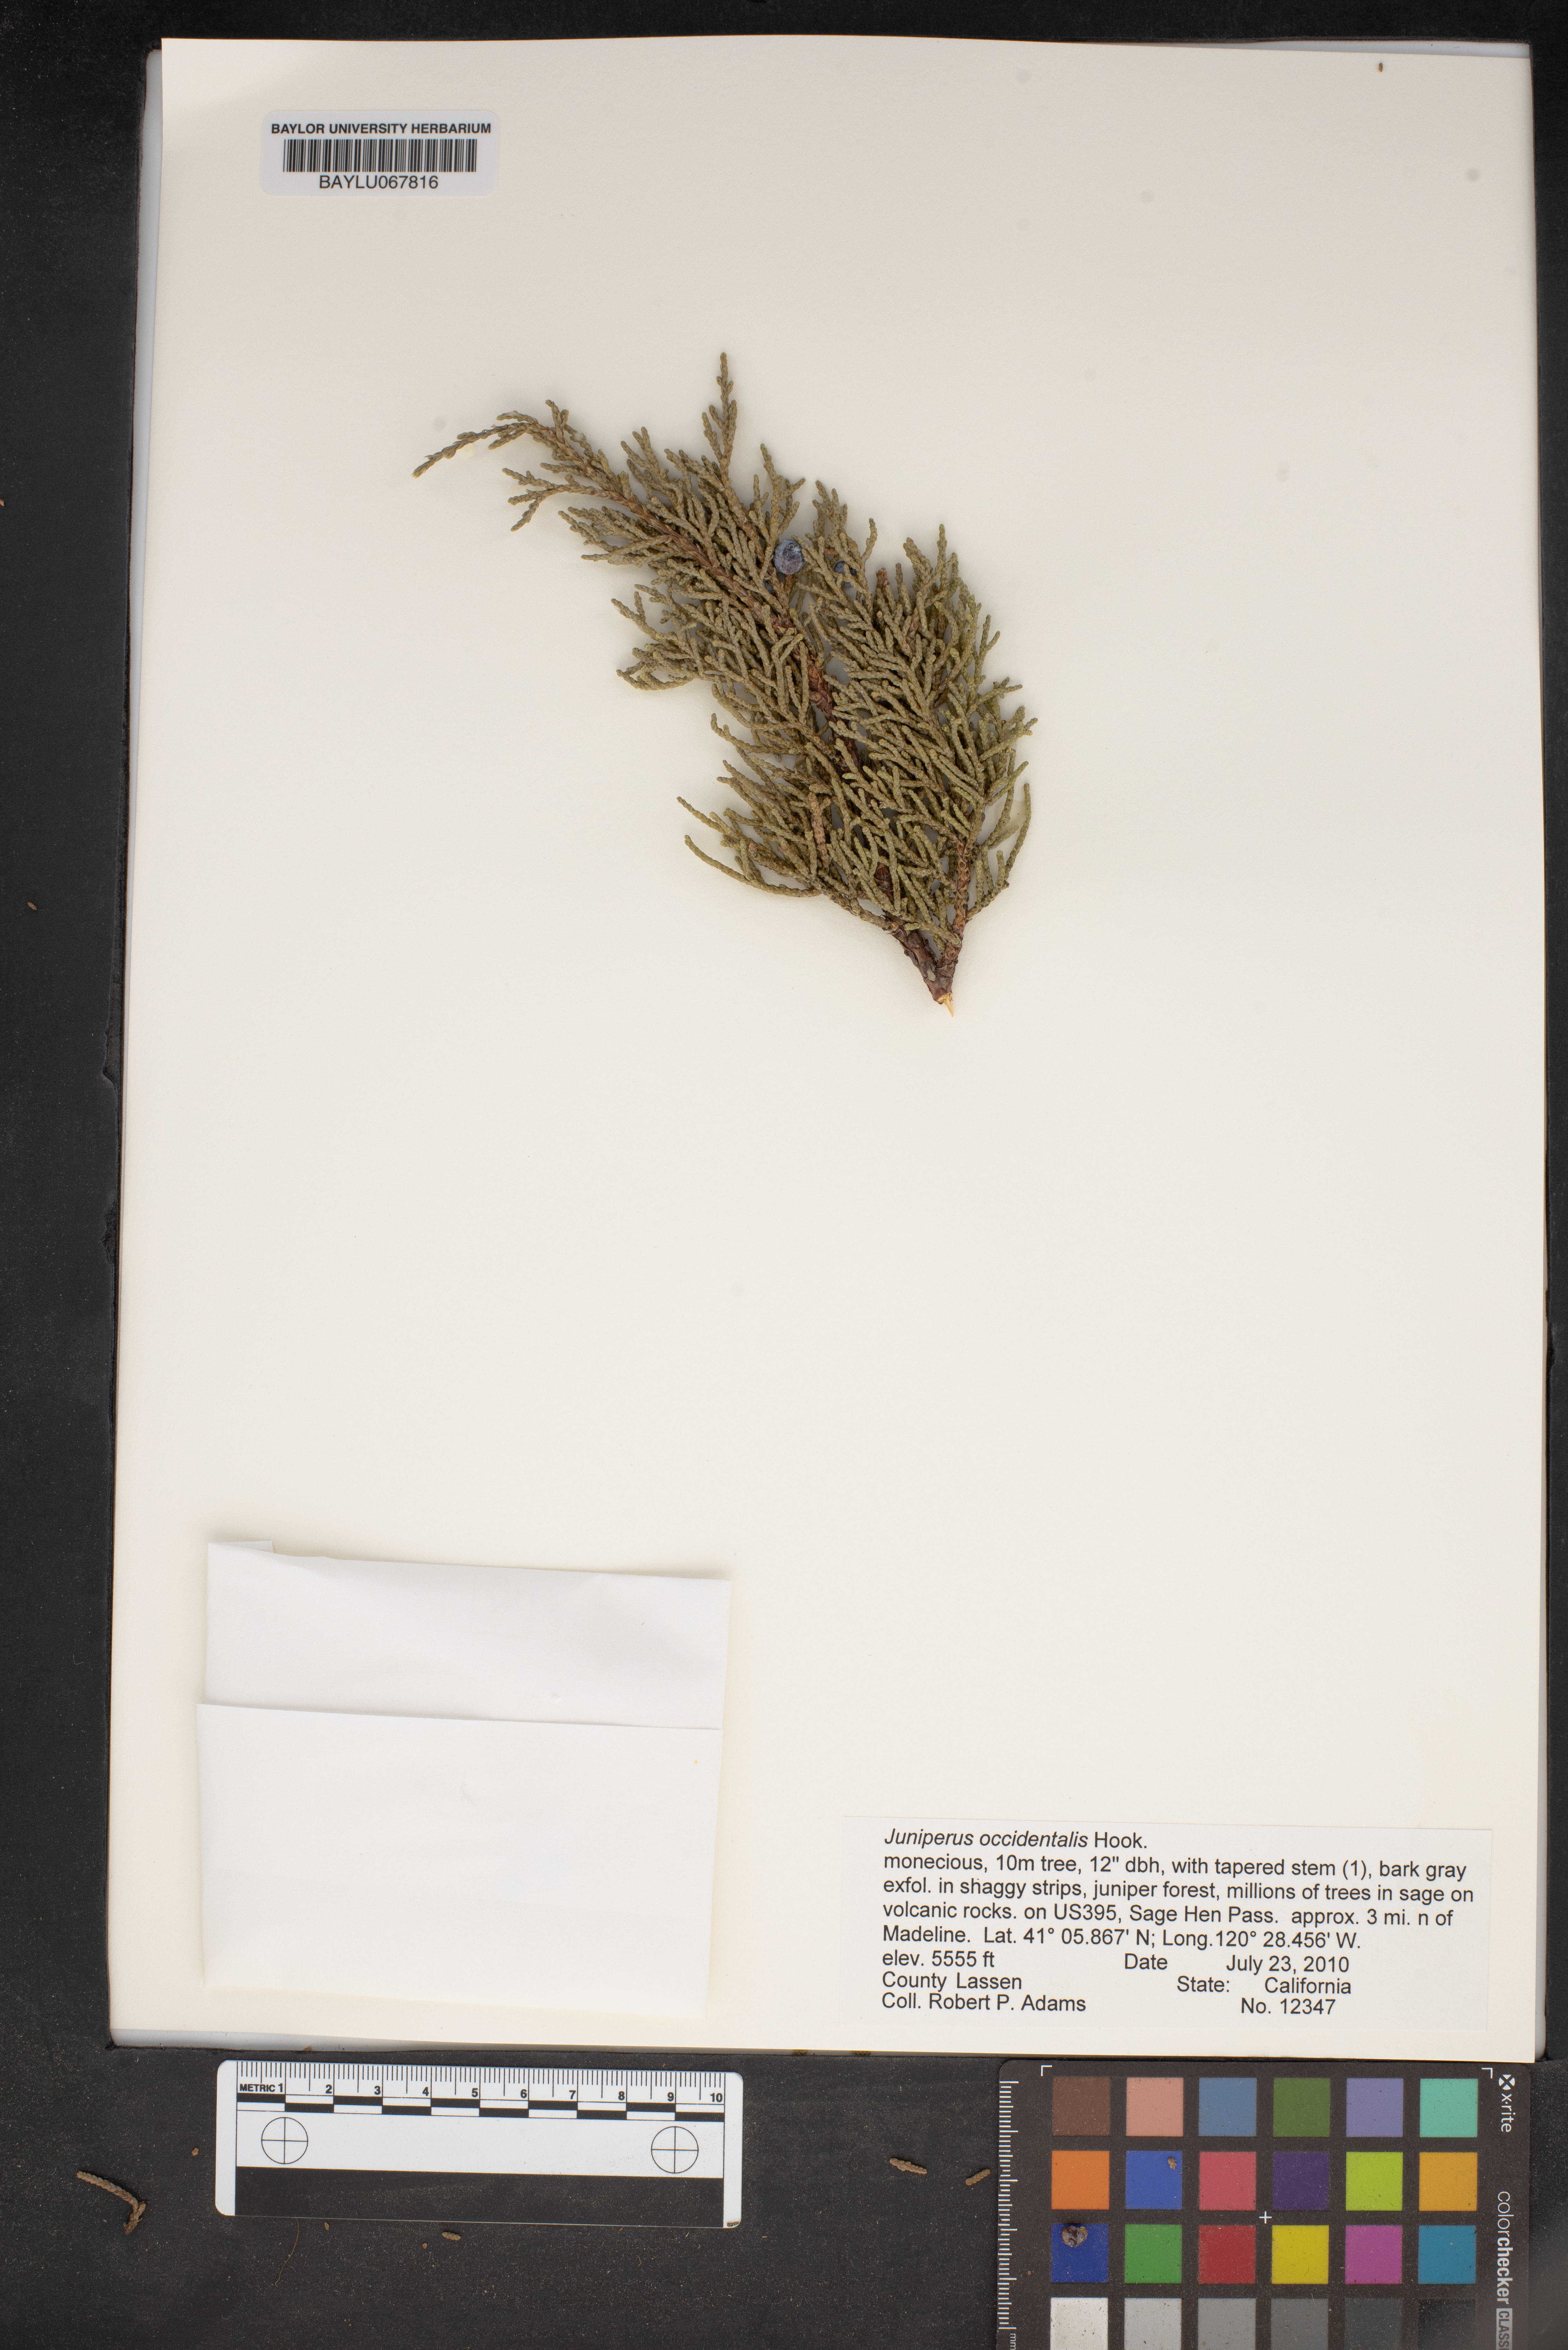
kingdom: Plantae
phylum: Tracheophyta
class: Pinopsida
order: Pinales
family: Cupressaceae
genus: Juniperus
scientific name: Juniperus occidentalis
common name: Western juniper
